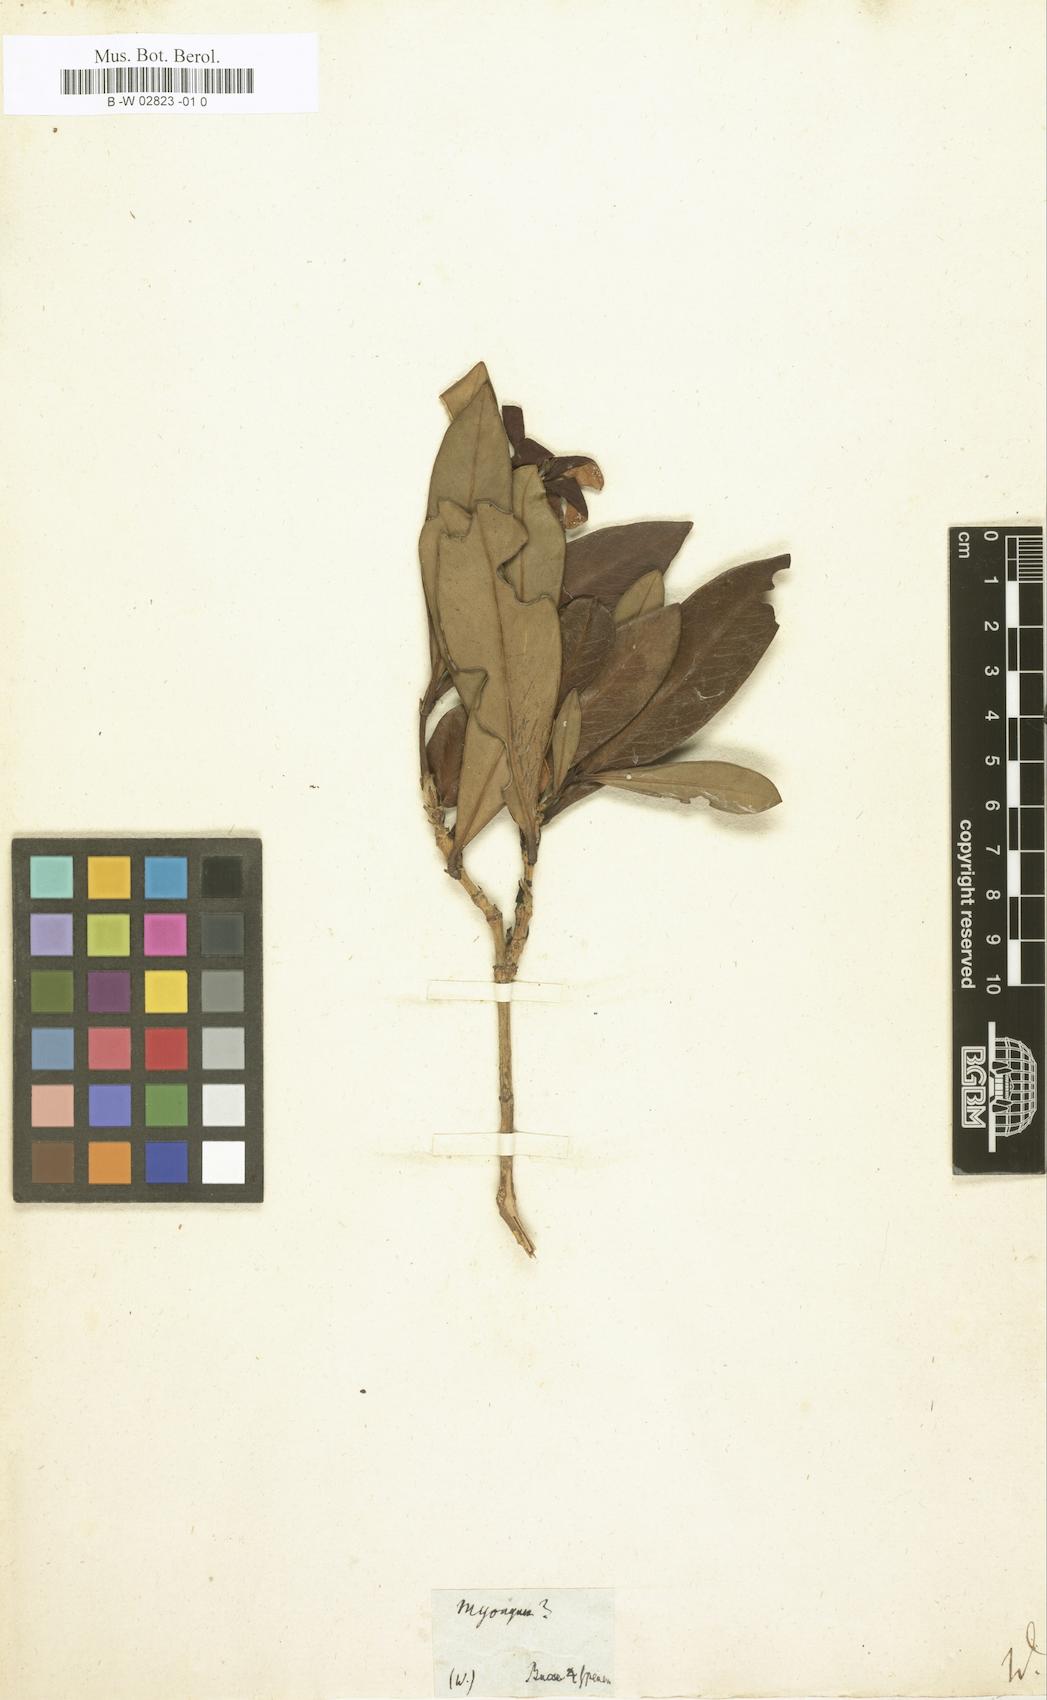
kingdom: Plantae
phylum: Tracheophyta
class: Magnoliopsida
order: Gentianales
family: Rubiaceae
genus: Ixora
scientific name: Ixora Myonima grandiflora
